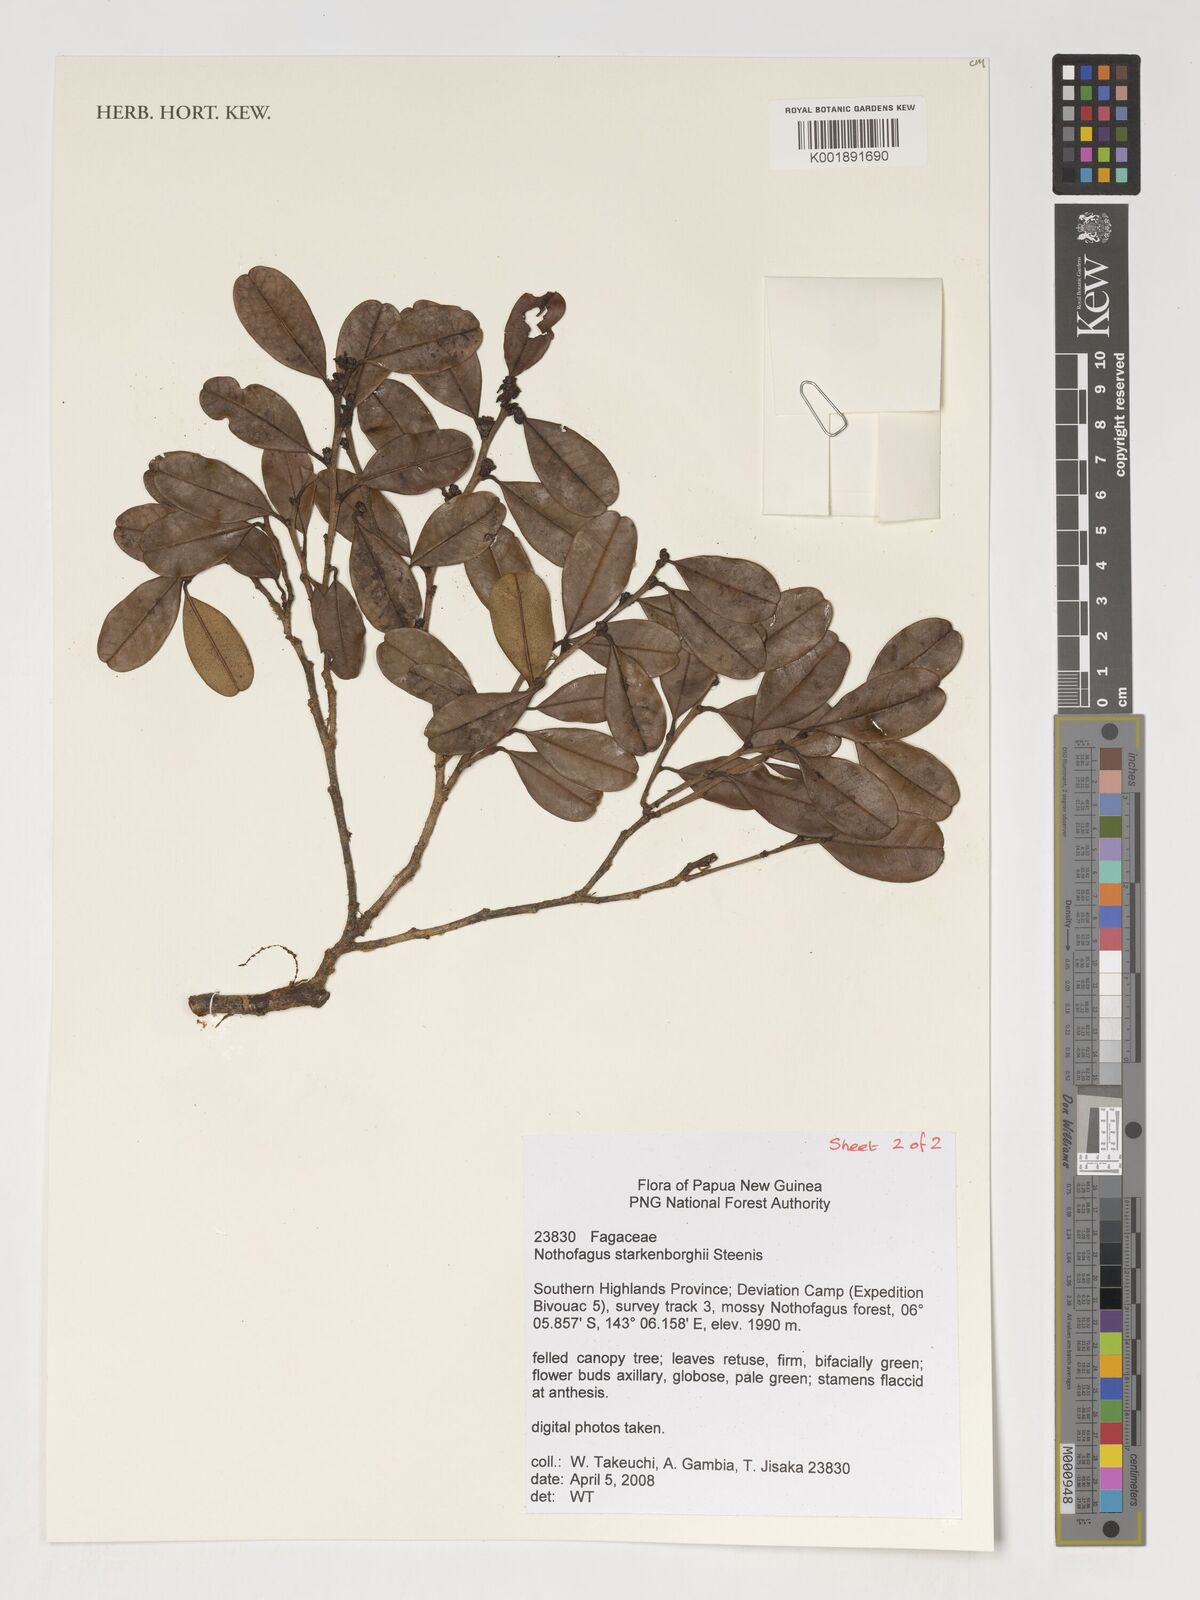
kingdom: Plantae
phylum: Tracheophyta
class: Magnoliopsida
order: Fagales
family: Nothofagaceae
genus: Nothofagus
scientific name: Nothofagus starkenborghiorum
